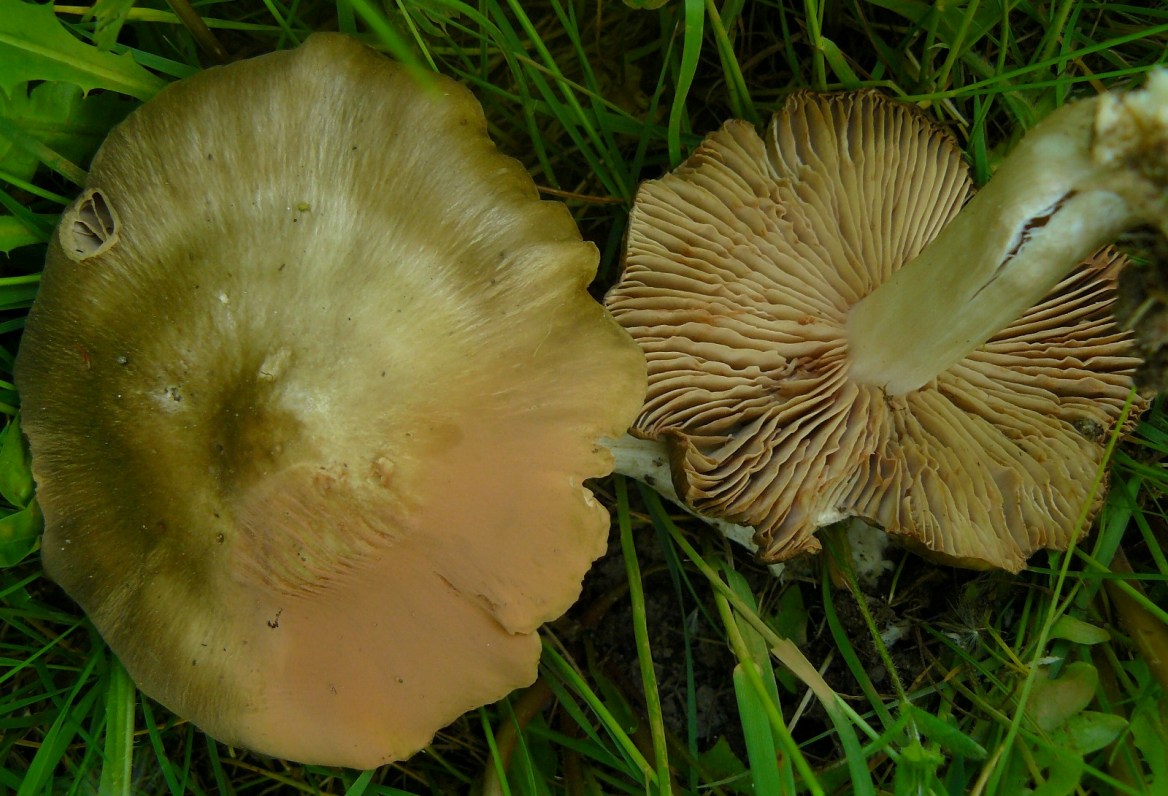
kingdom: Fungi
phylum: Basidiomycota
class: Agaricomycetes
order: Agaricales
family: Entolomataceae
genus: Entoloma
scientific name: Entoloma clypeatum
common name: flammet rødblad
